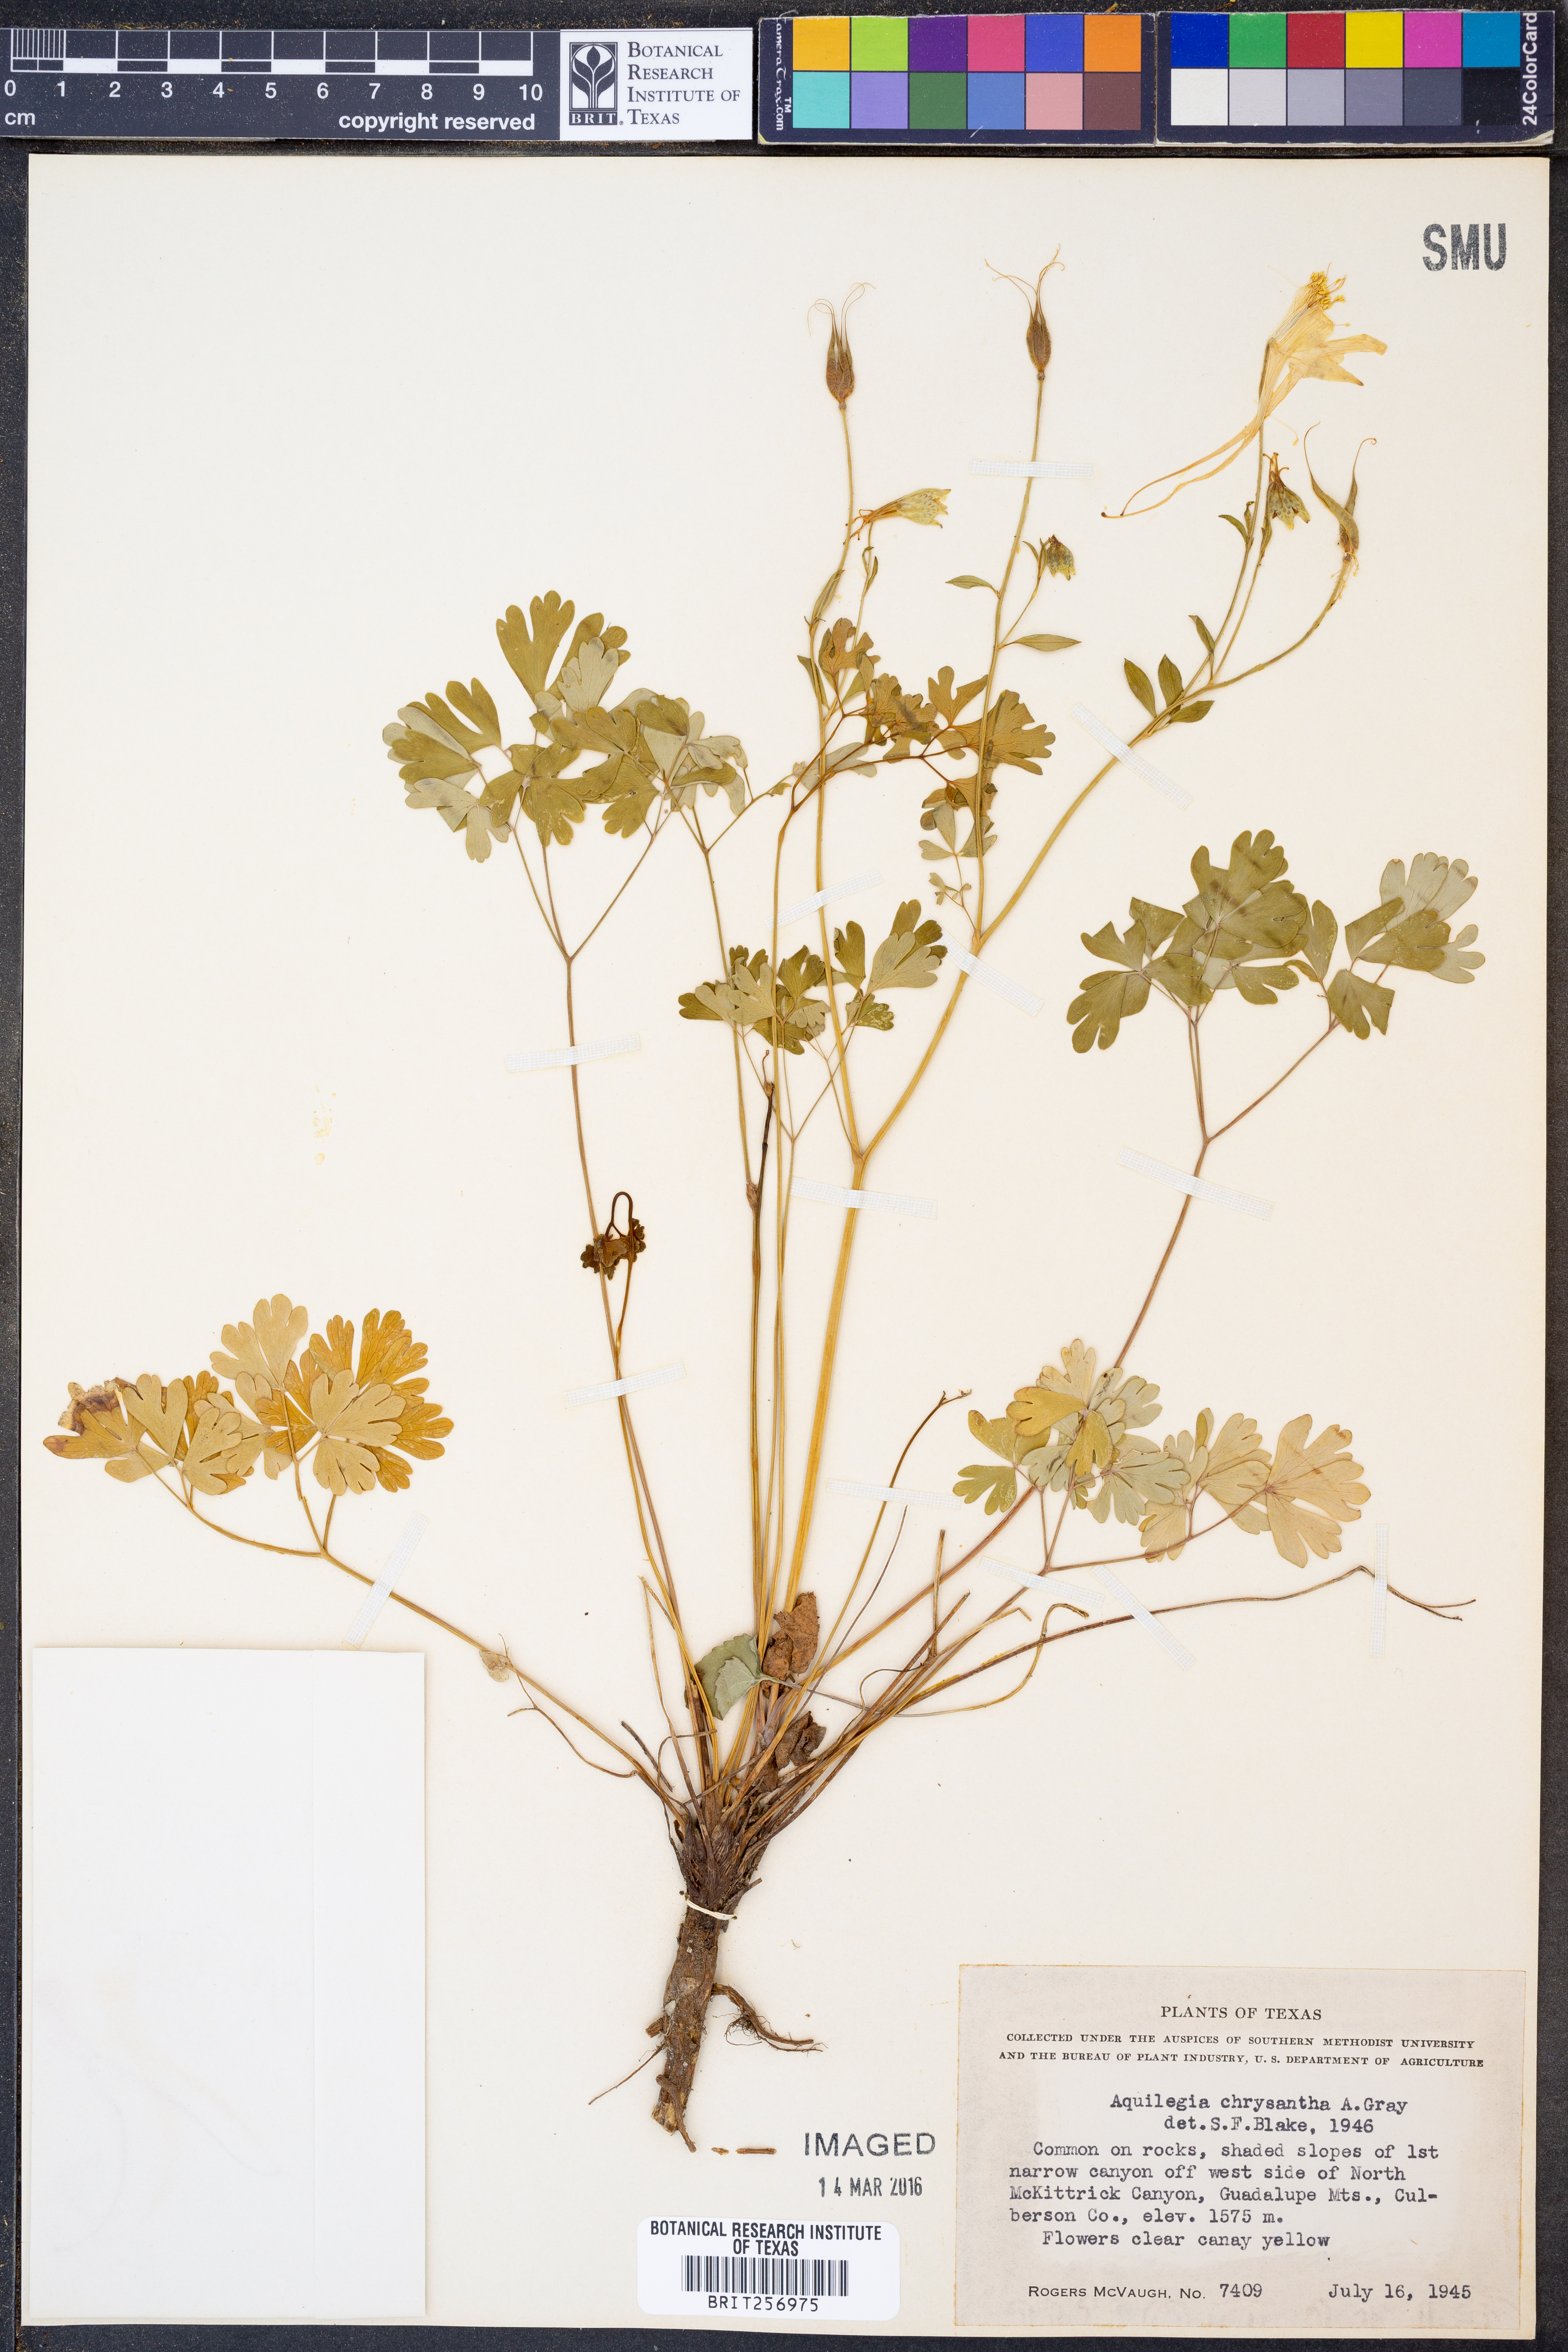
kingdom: Plantae
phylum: Tracheophyta
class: Magnoliopsida
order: Ranunculales
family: Ranunculaceae
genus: Aquilegia
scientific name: Aquilegia chrysantha
